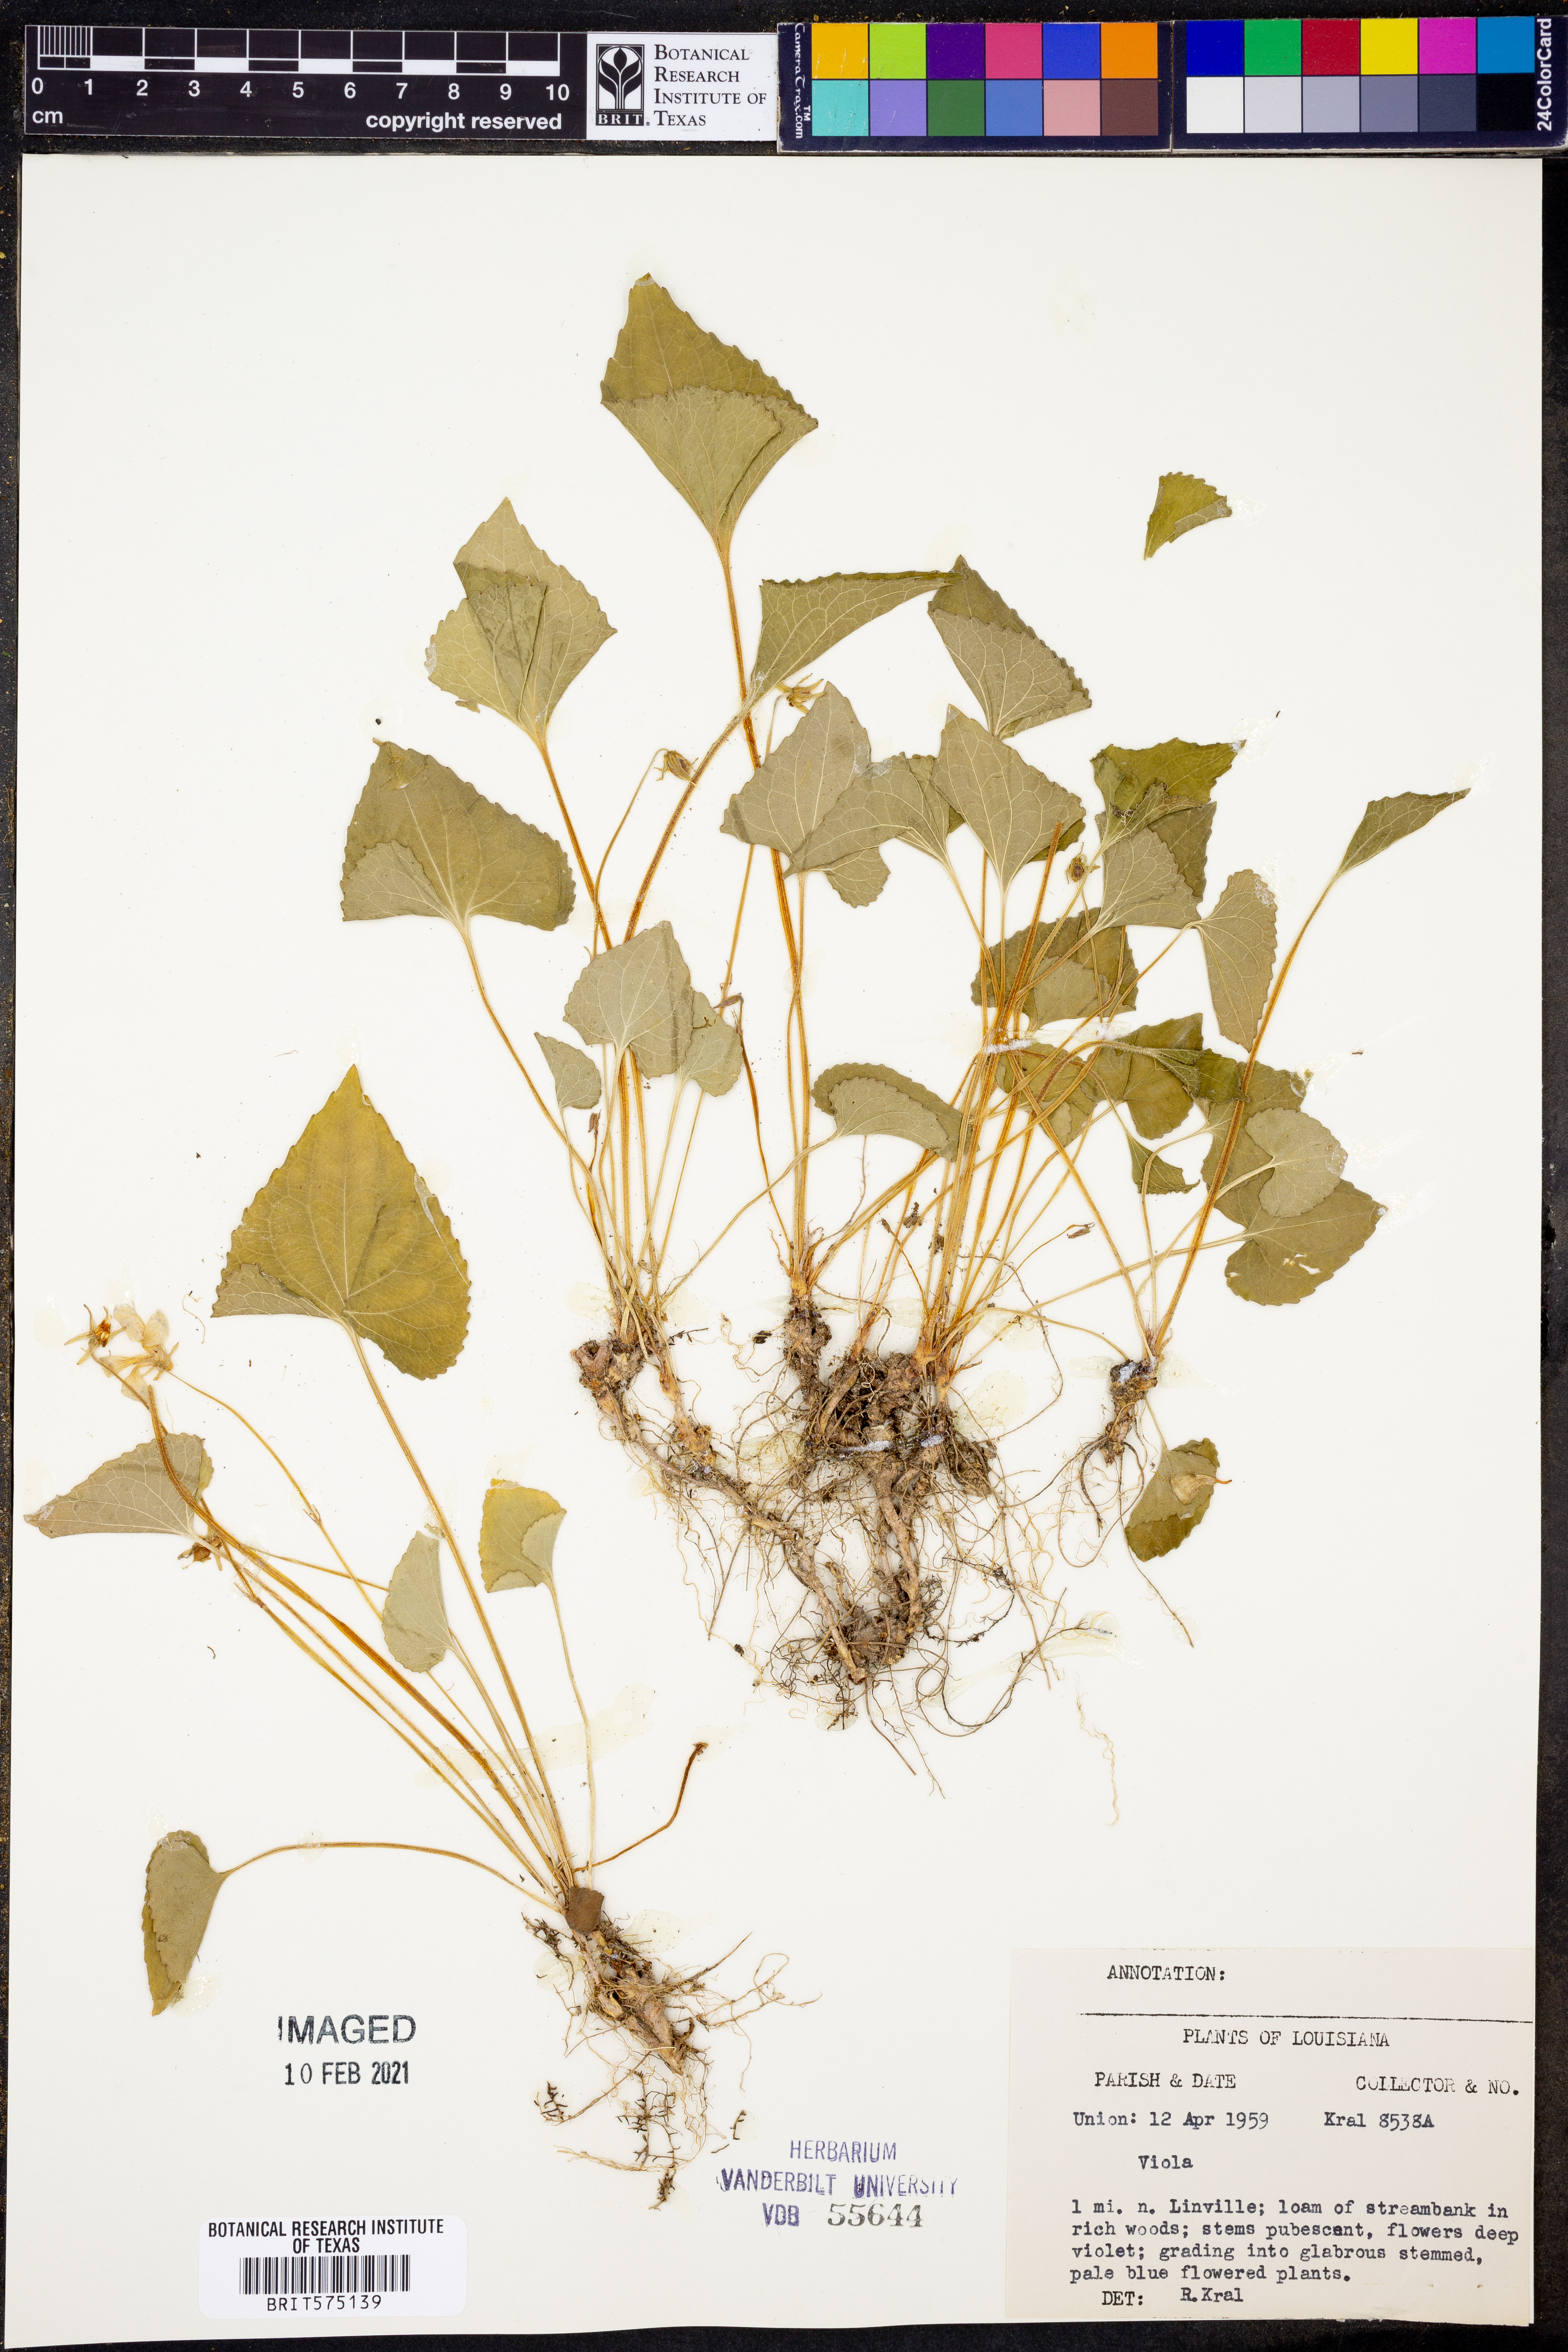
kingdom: Plantae
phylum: Tracheophyta
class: Magnoliopsida
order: Malpighiales
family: Violaceae
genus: Viola
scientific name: Viola
